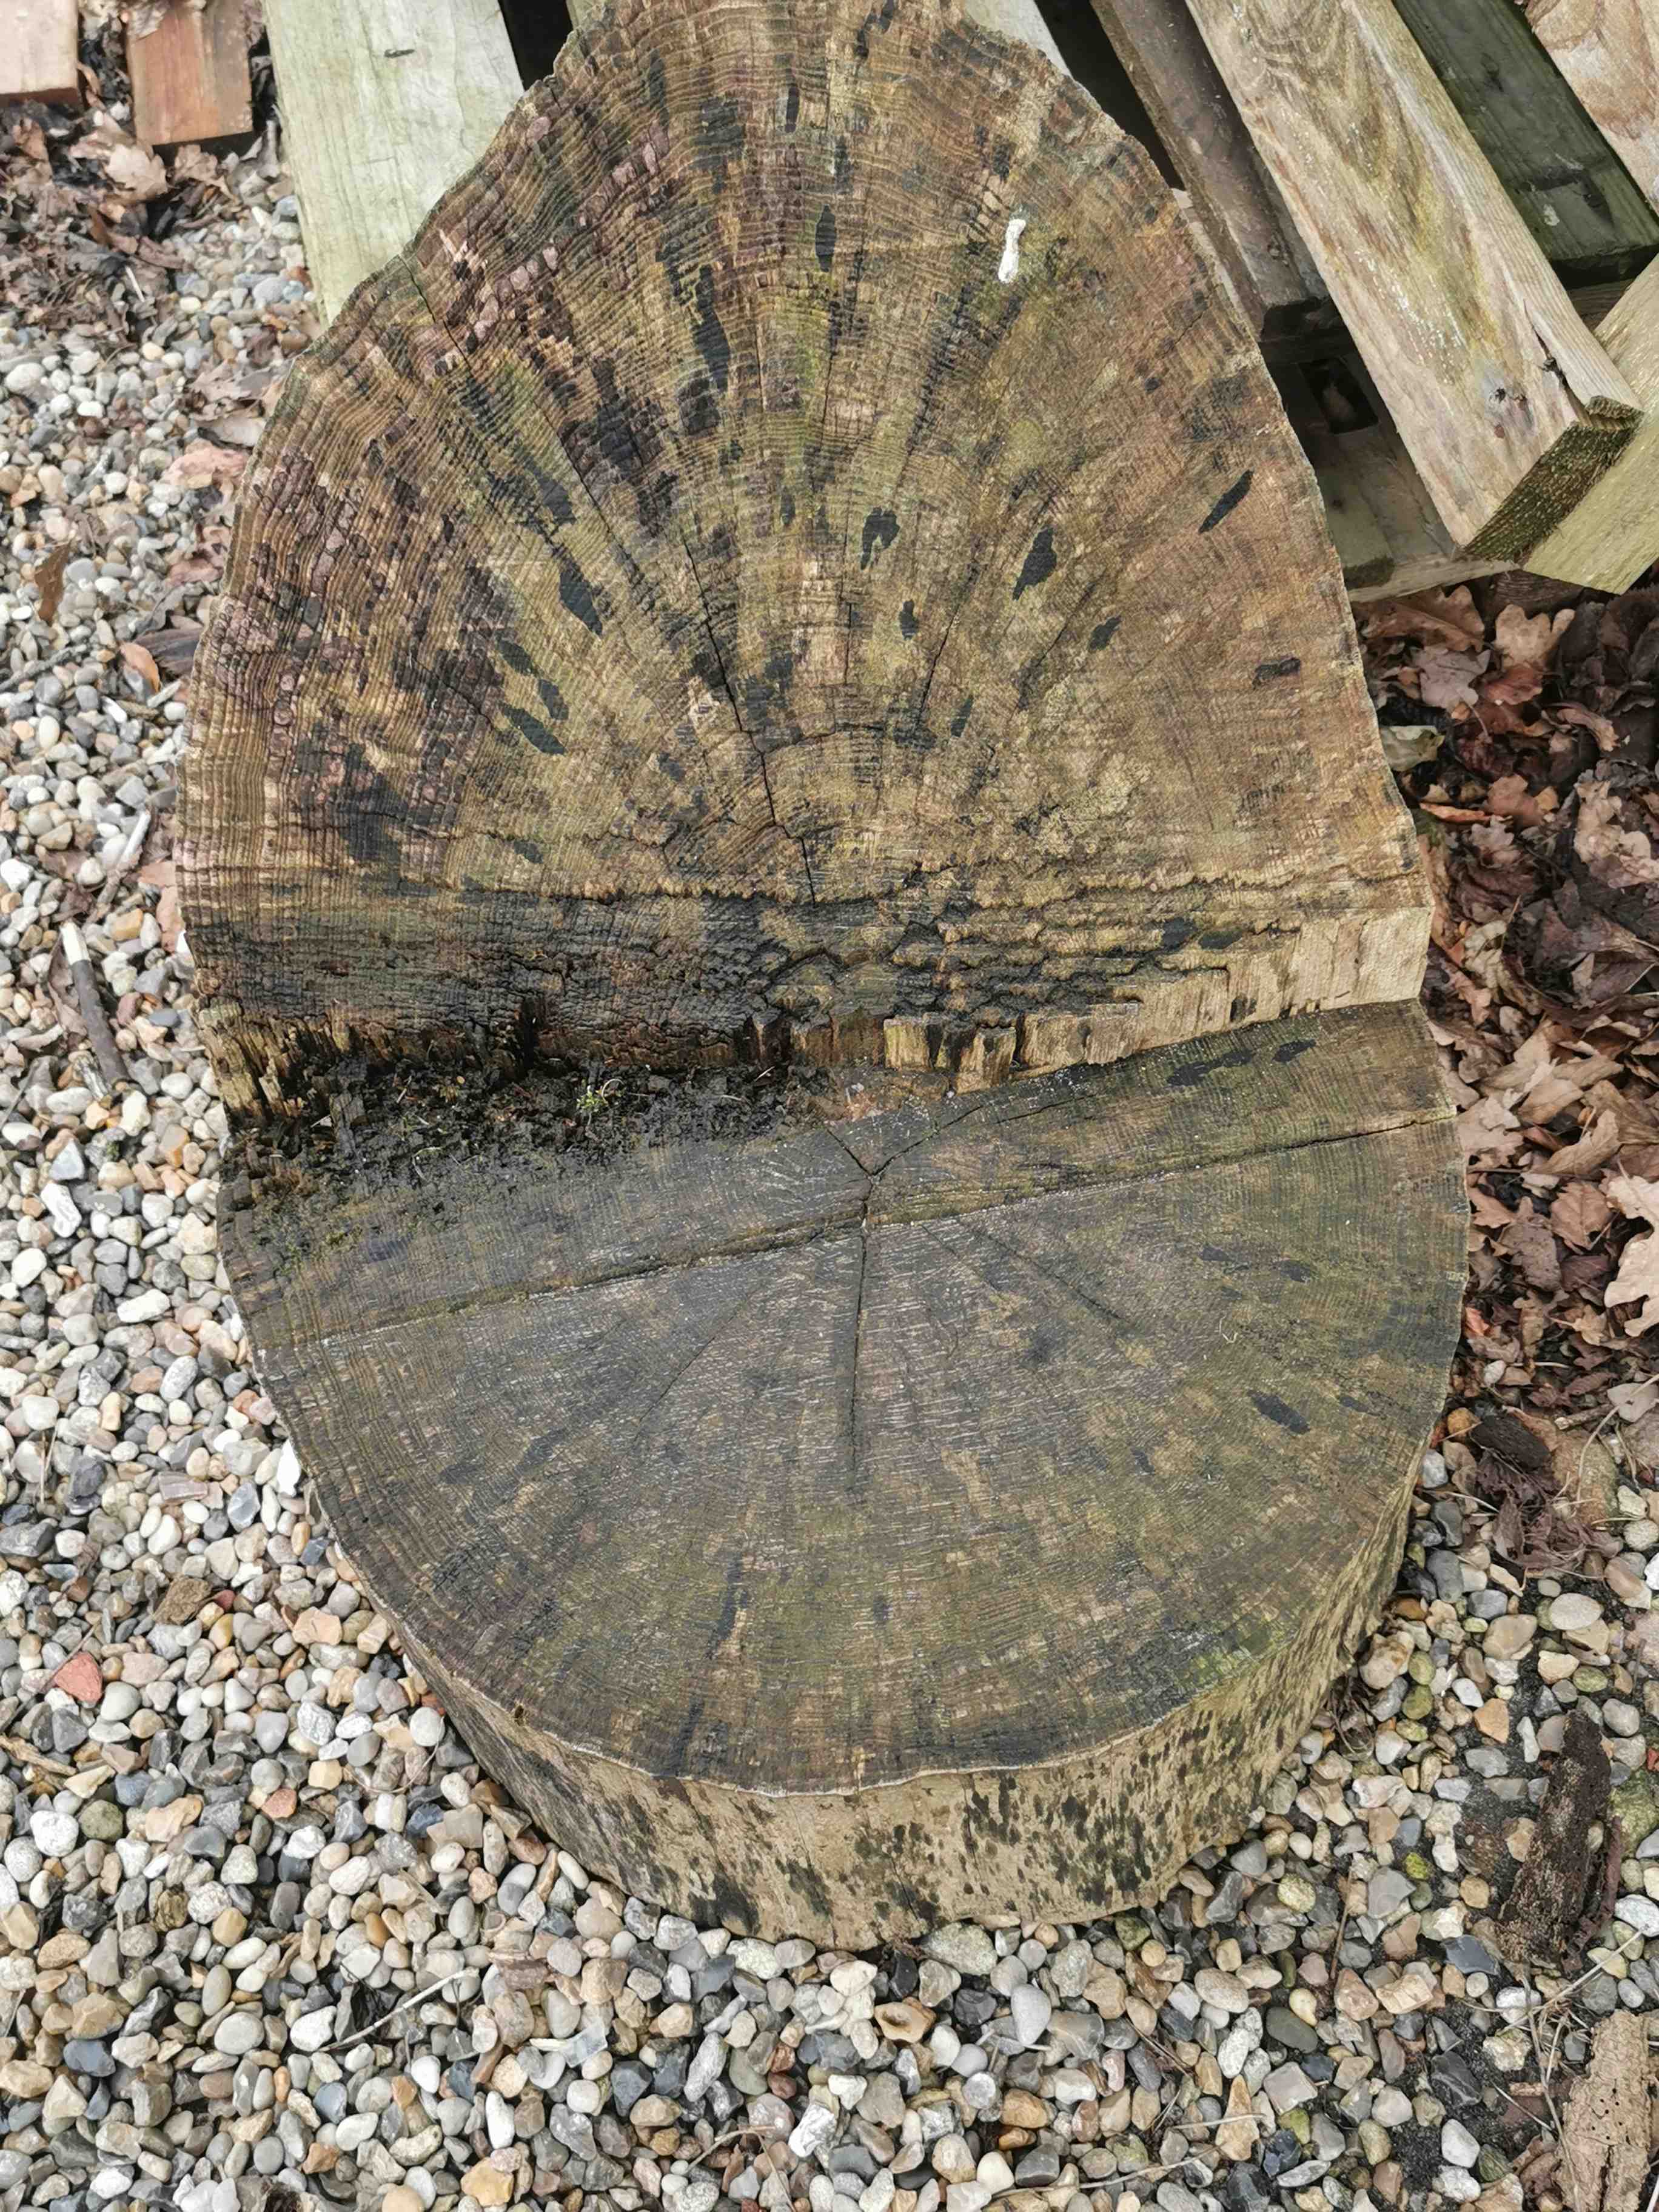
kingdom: Fungi
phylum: Ascomycota
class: Leotiomycetes
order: Helotiales
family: Helotiaceae
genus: Bispora
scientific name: Bispora pallescens
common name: måtte-snitskive
